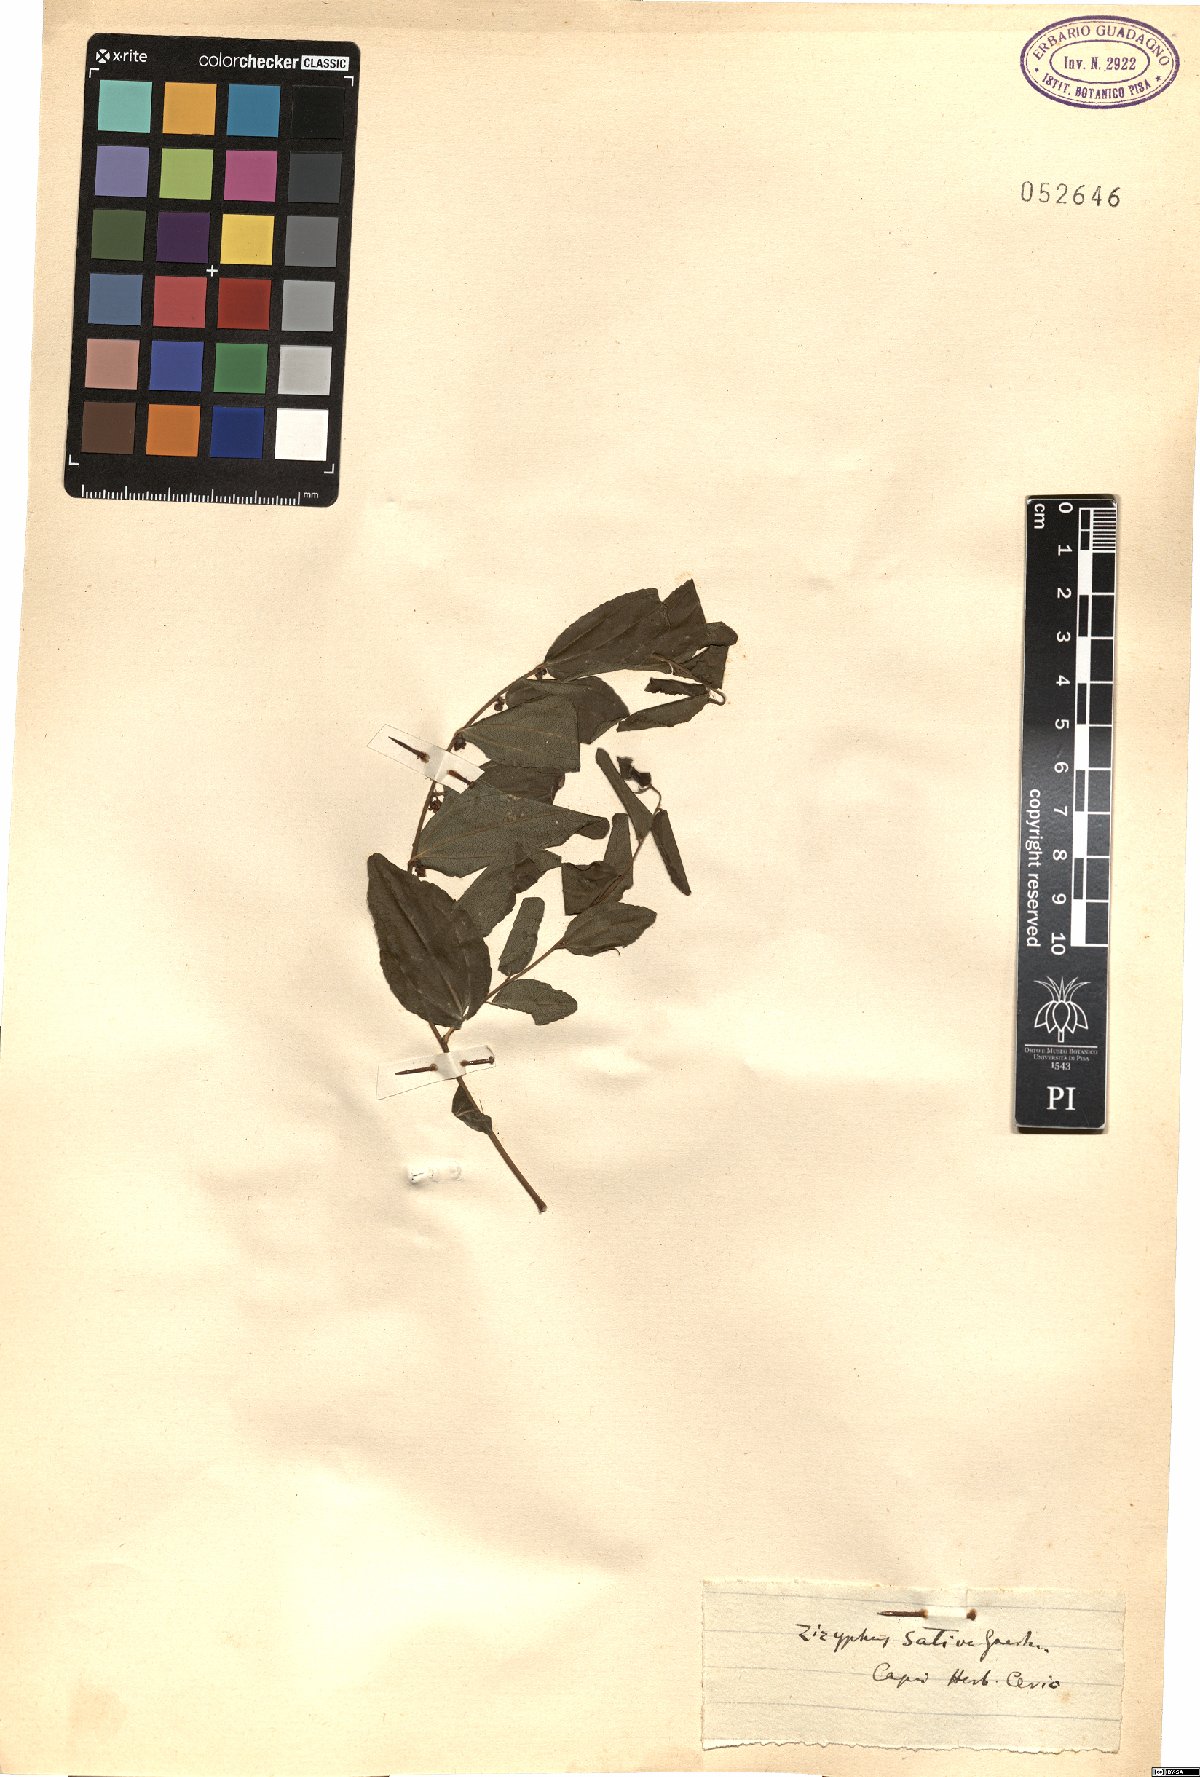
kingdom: Plantae
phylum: Tracheophyta
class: Magnoliopsida
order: Rosales
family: Rhamnaceae
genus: Ziziphus
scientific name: Ziziphus jujuba
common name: Jujube red date
